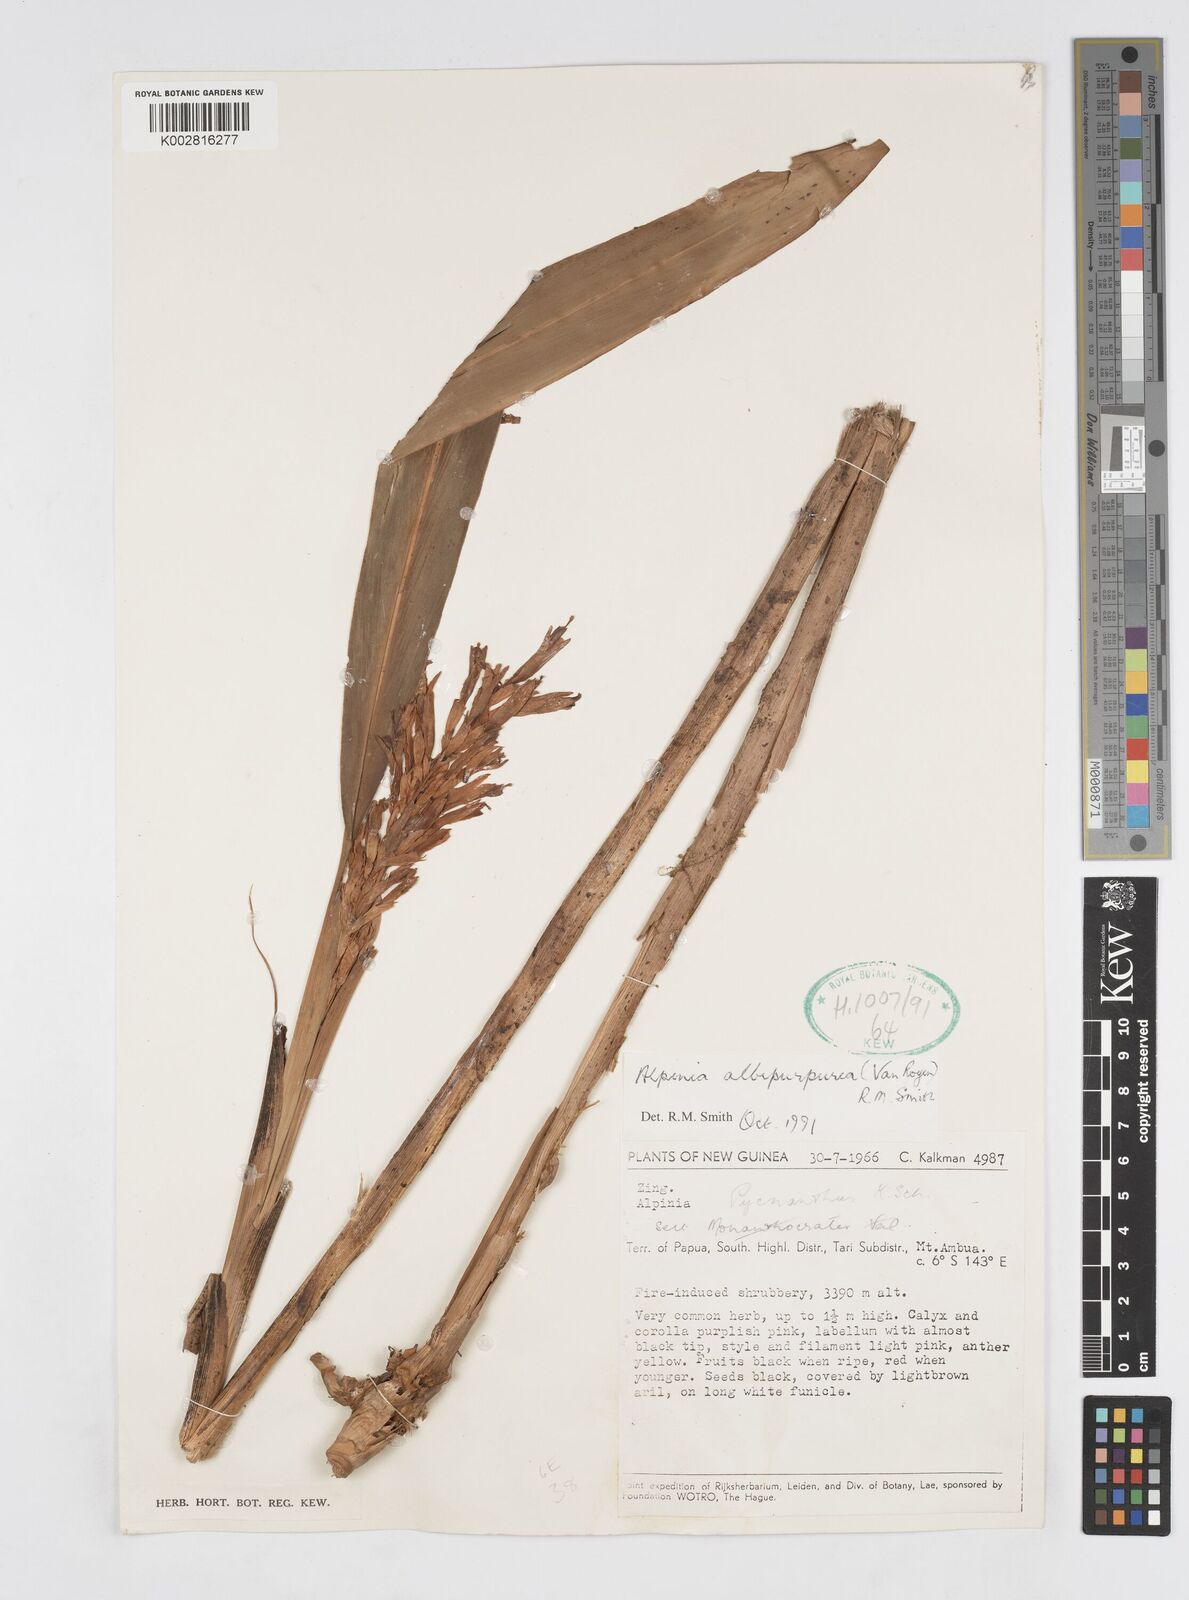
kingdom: Plantae
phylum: Tracheophyta
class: Liliopsida
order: Zingiberales
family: Zingiberaceae
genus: Alpinia
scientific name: Alpinia albipurpurea
